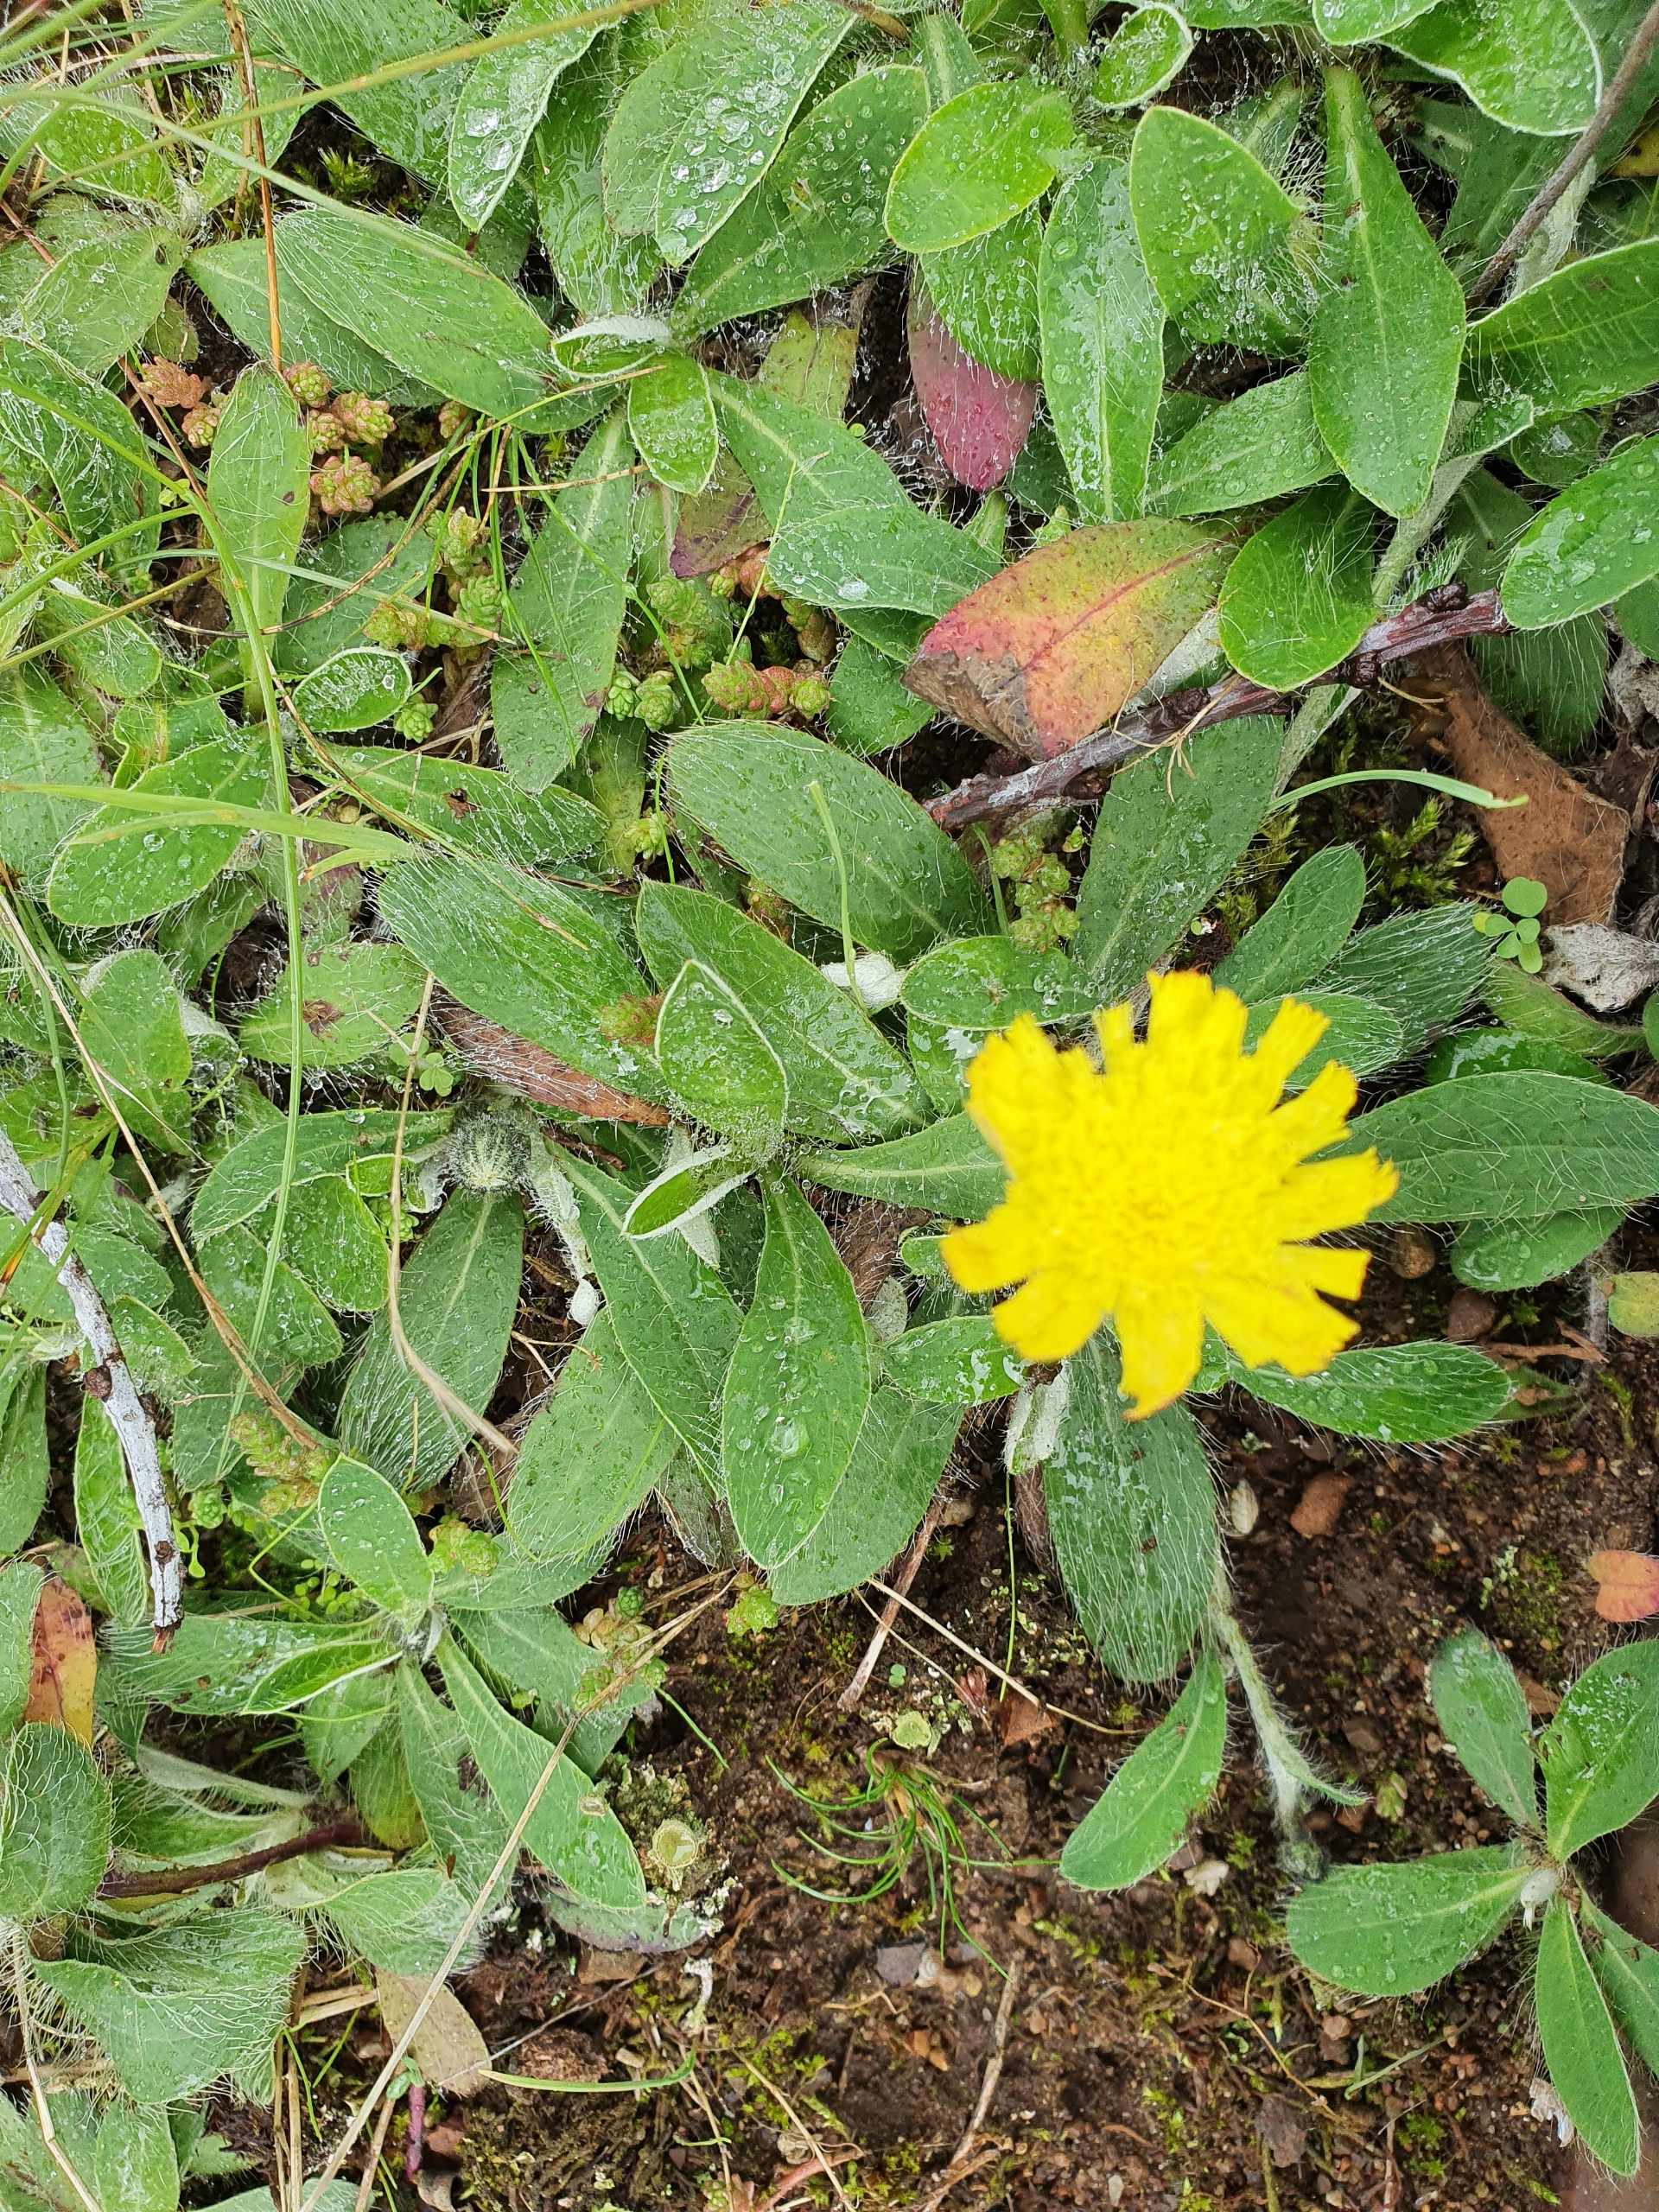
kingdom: Plantae
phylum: Tracheophyta
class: Magnoliopsida
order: Asterales
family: Asteraceae
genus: Pilosella
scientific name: Pilosella officinarum
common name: Håret høgeurt
